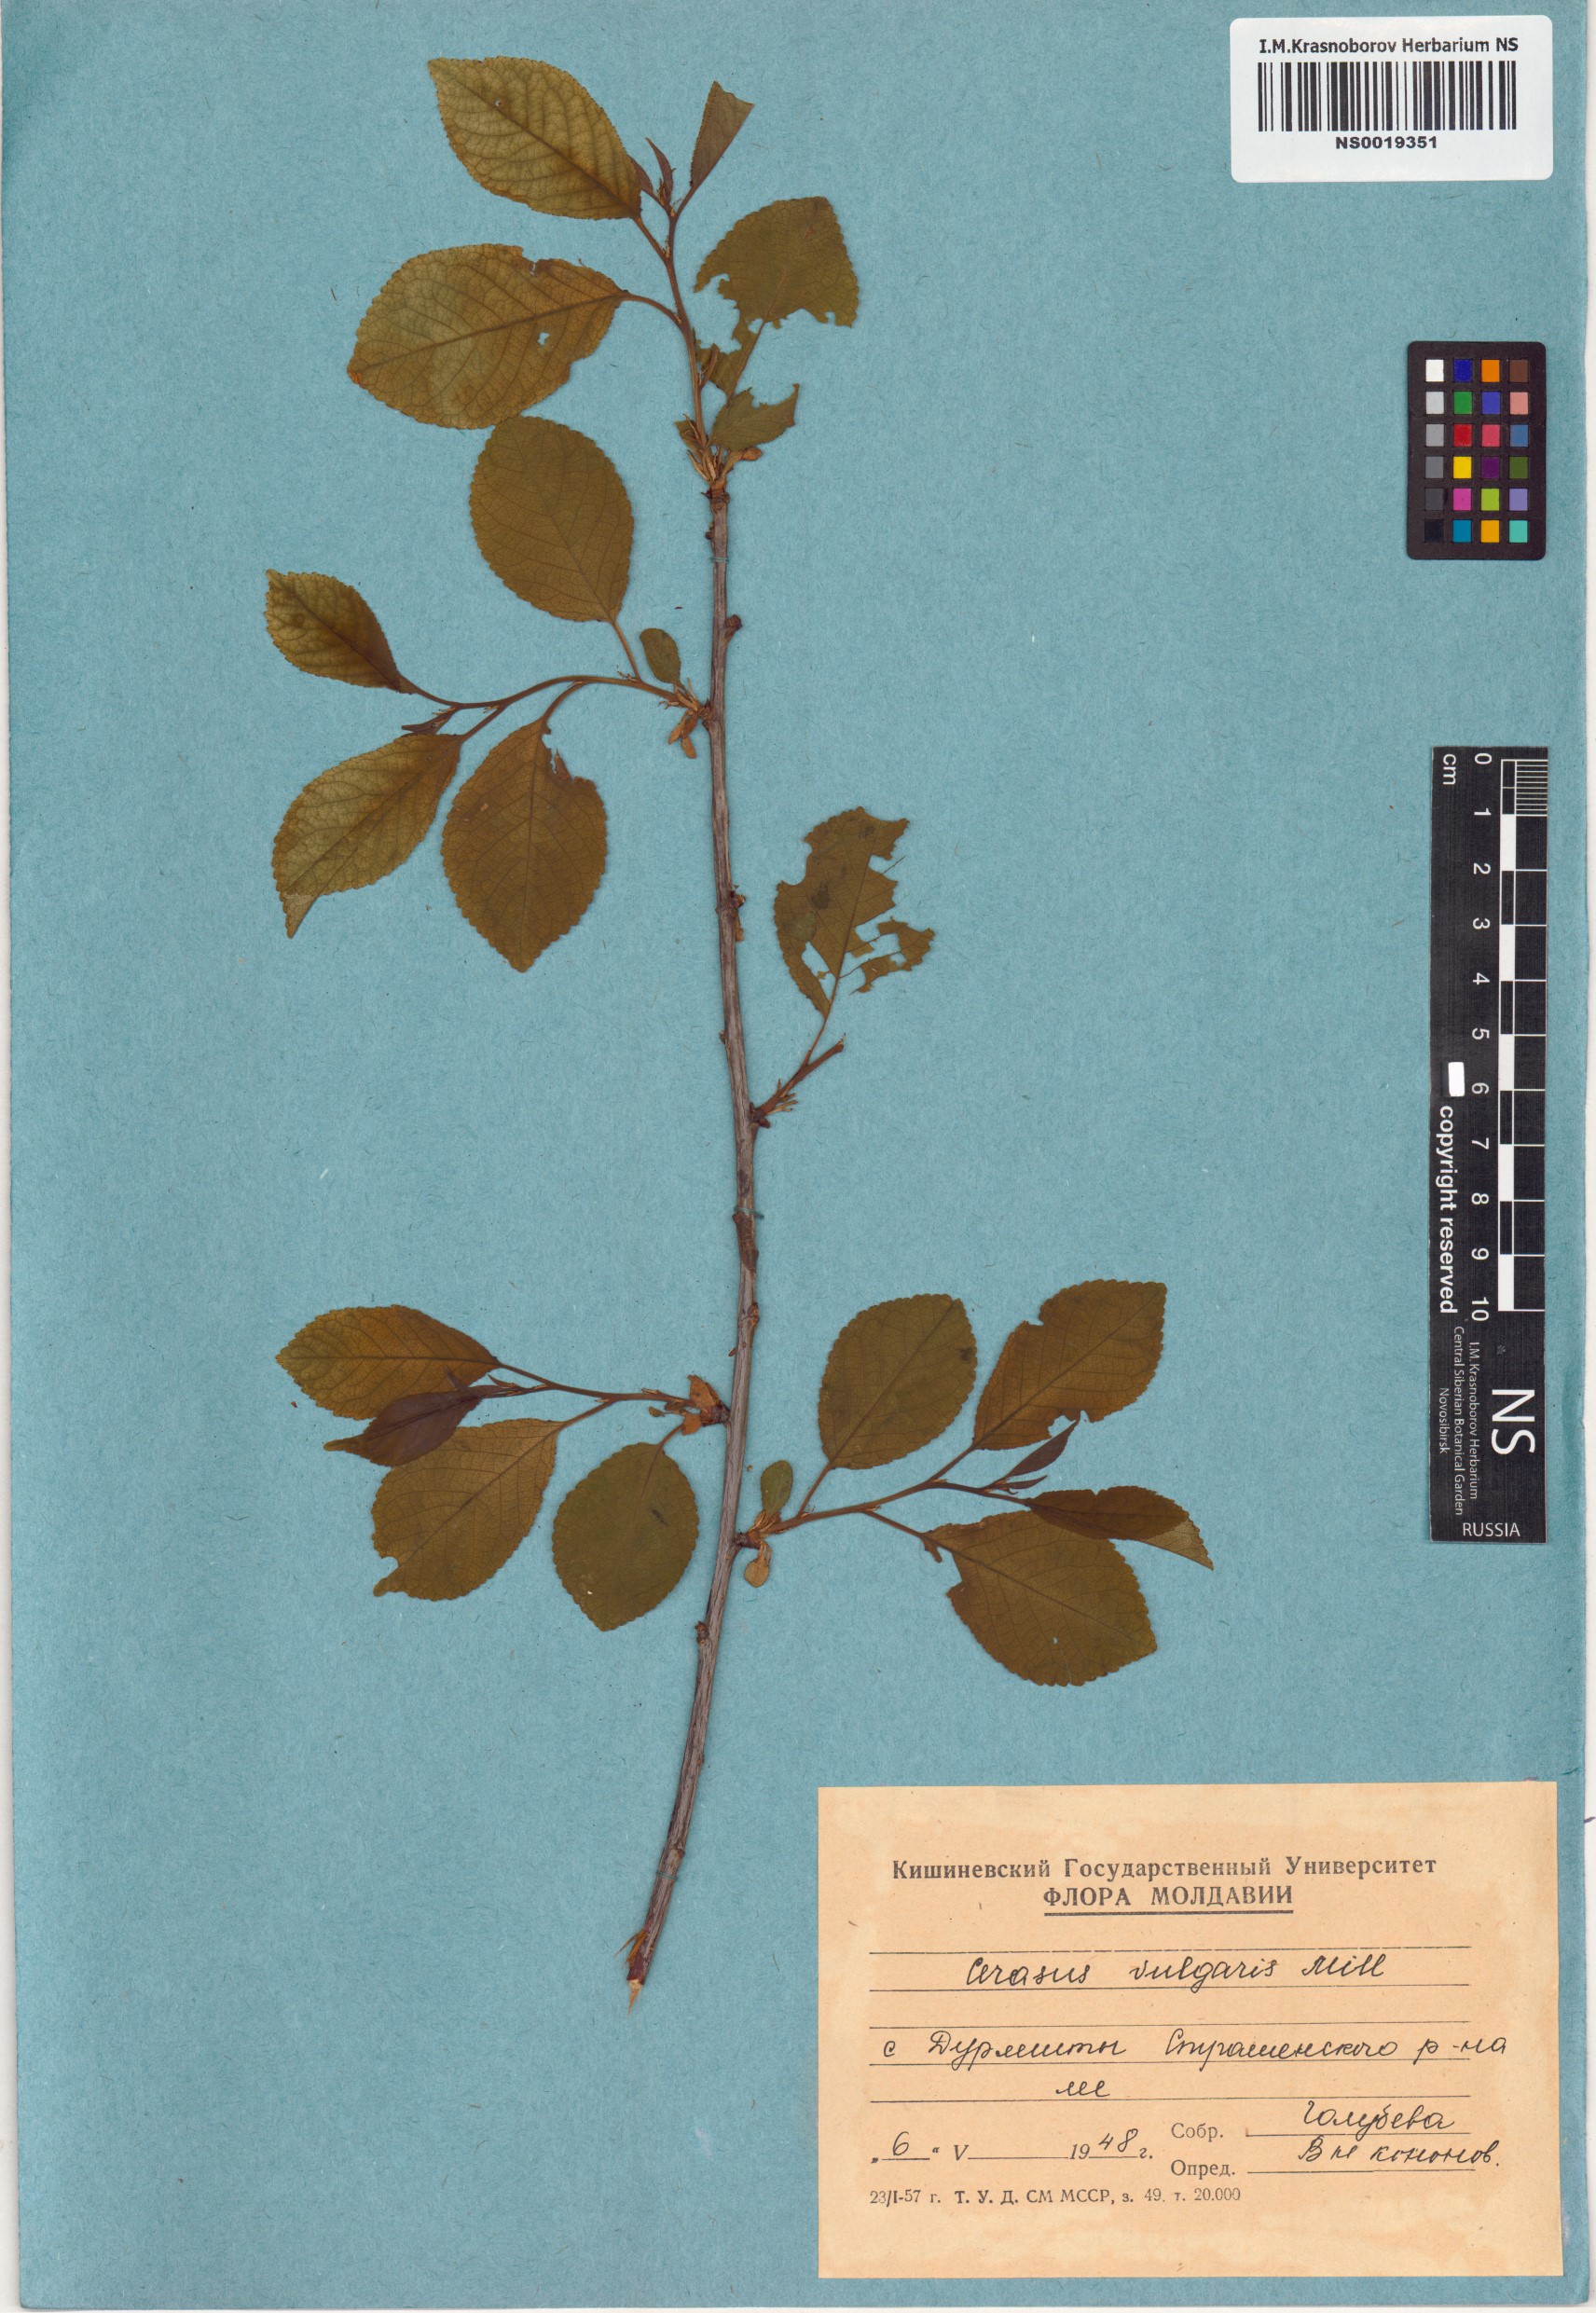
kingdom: Plantae
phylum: Tracheophyta
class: Magnoliopsida
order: Rosales
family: Rosaceae
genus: Prunus
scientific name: Prunus cerasus
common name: Morello cherry
